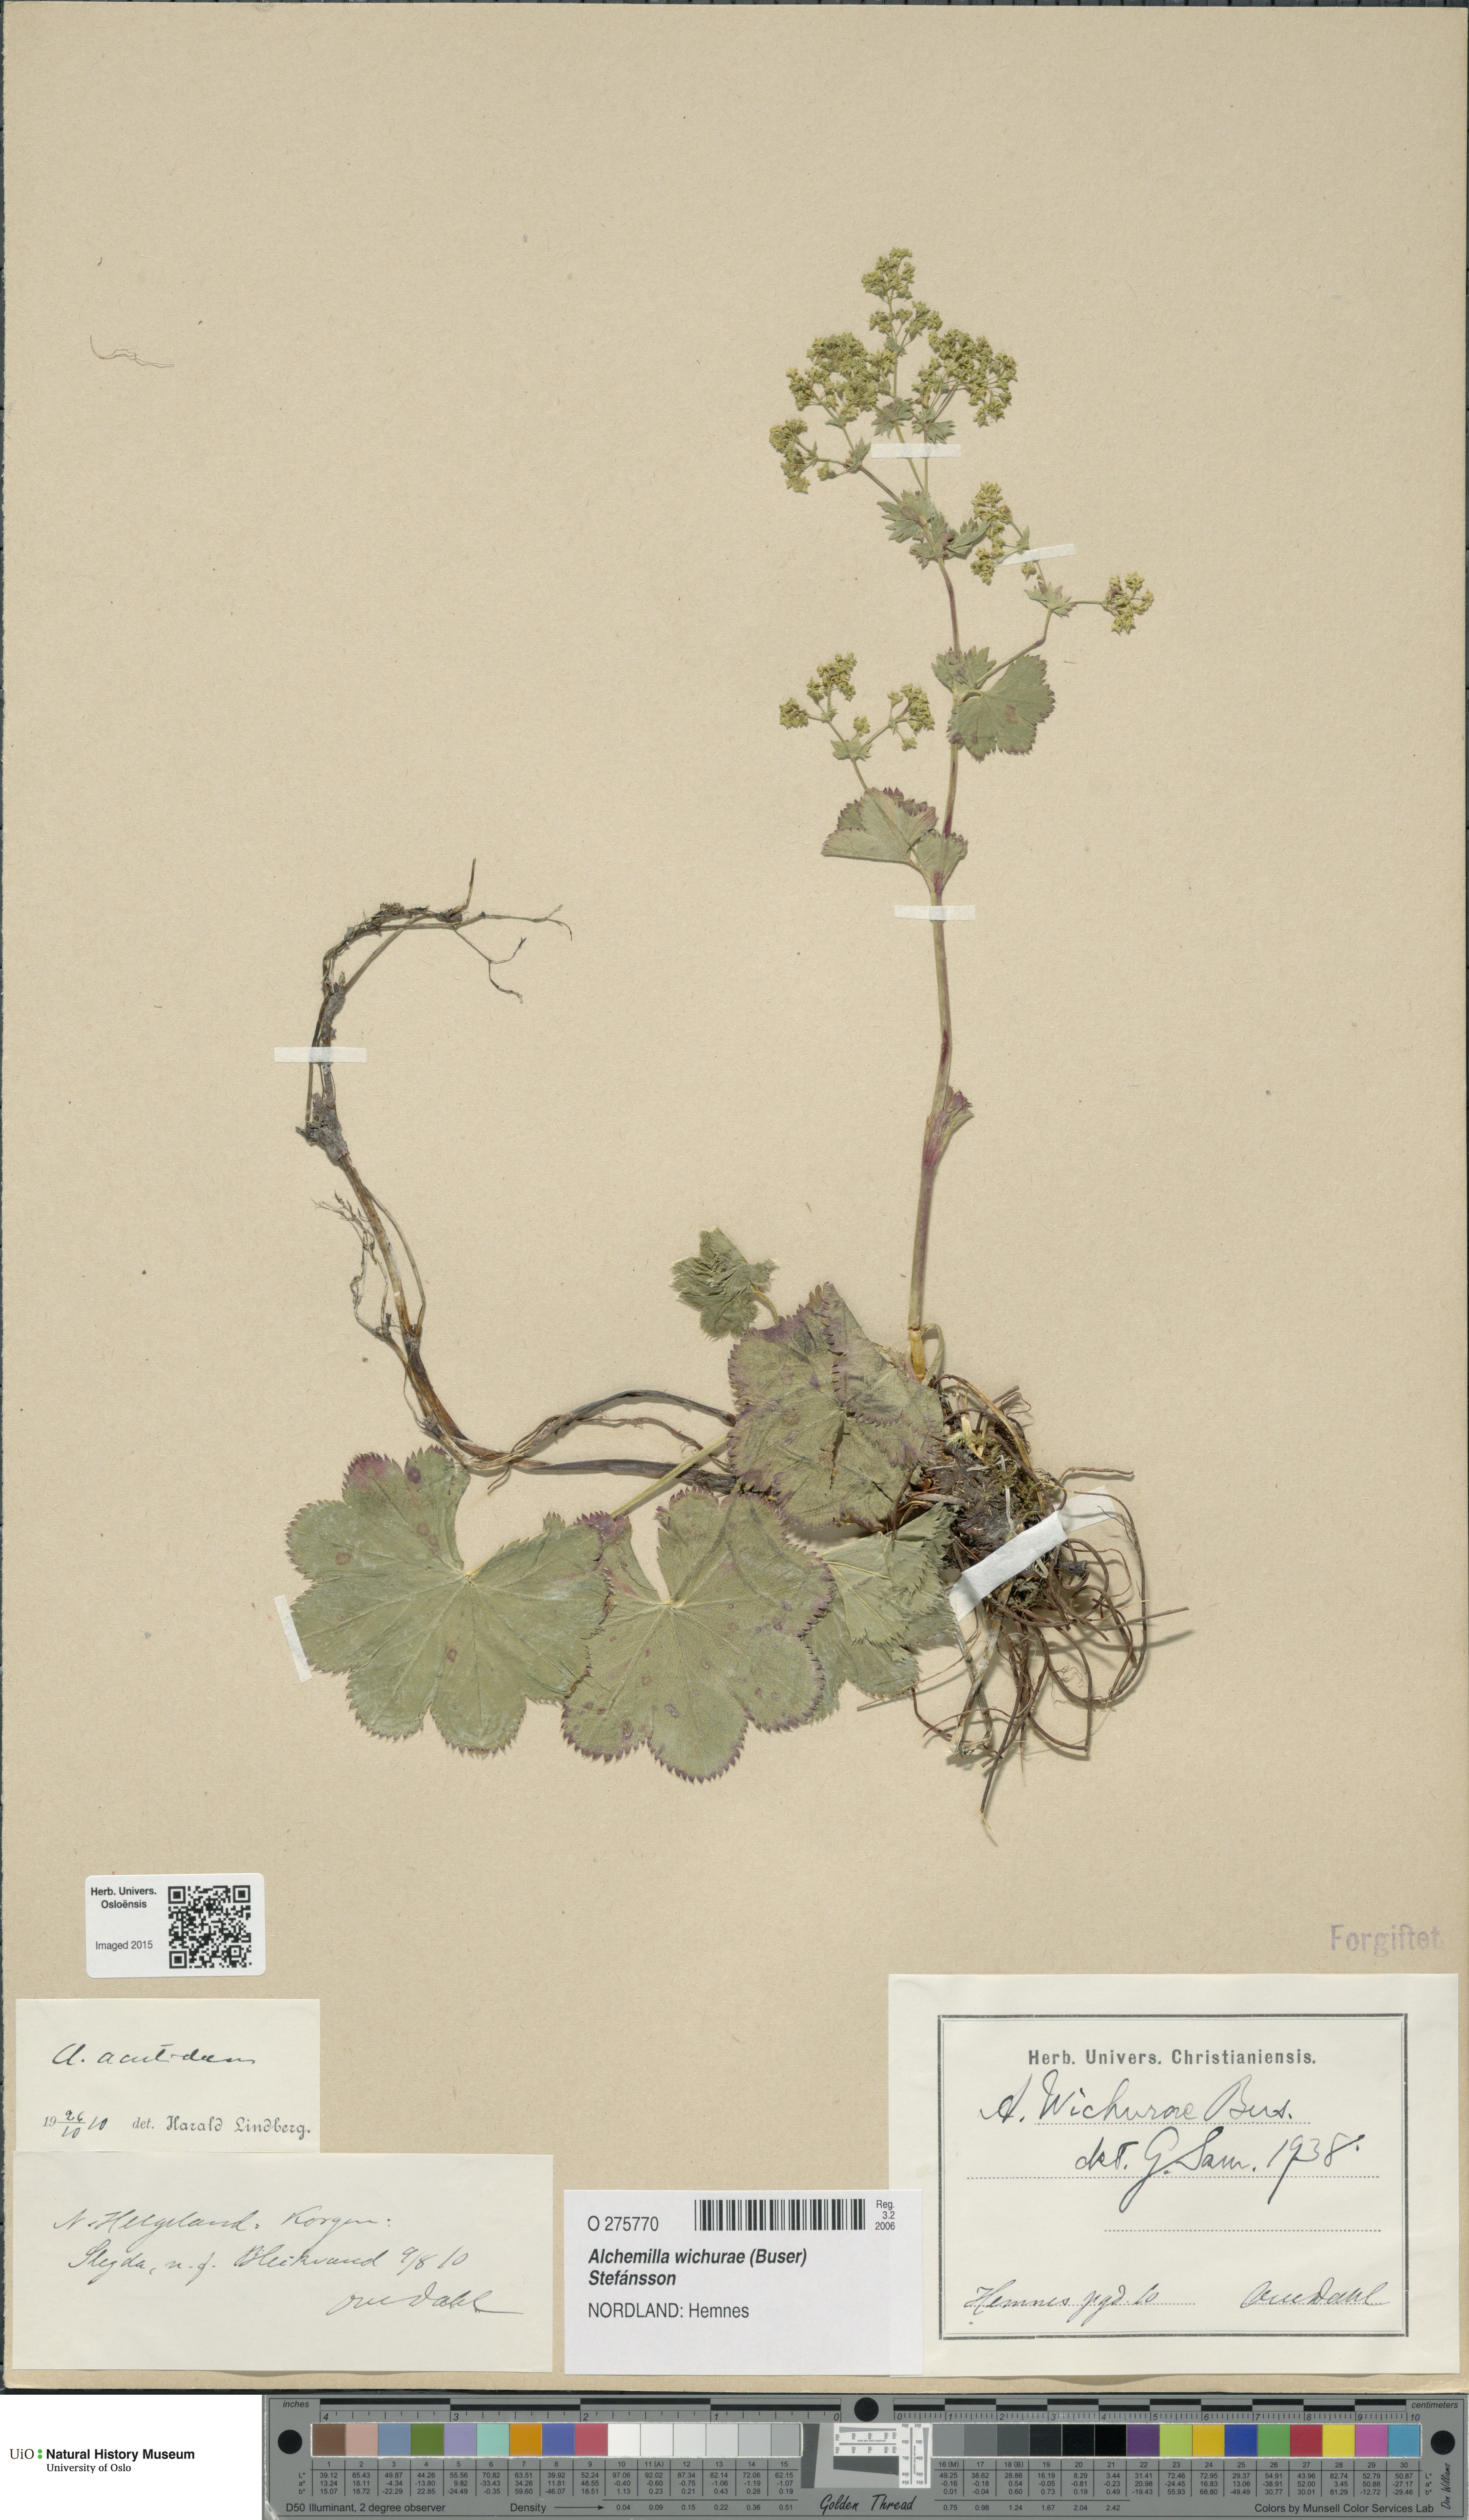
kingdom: Plantae
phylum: Tracheophyta
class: Magnoliopsida
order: Rosales
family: Rosaceae
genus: Alchemilla
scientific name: Alchemilla wichurae
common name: Rock lady's mantle
